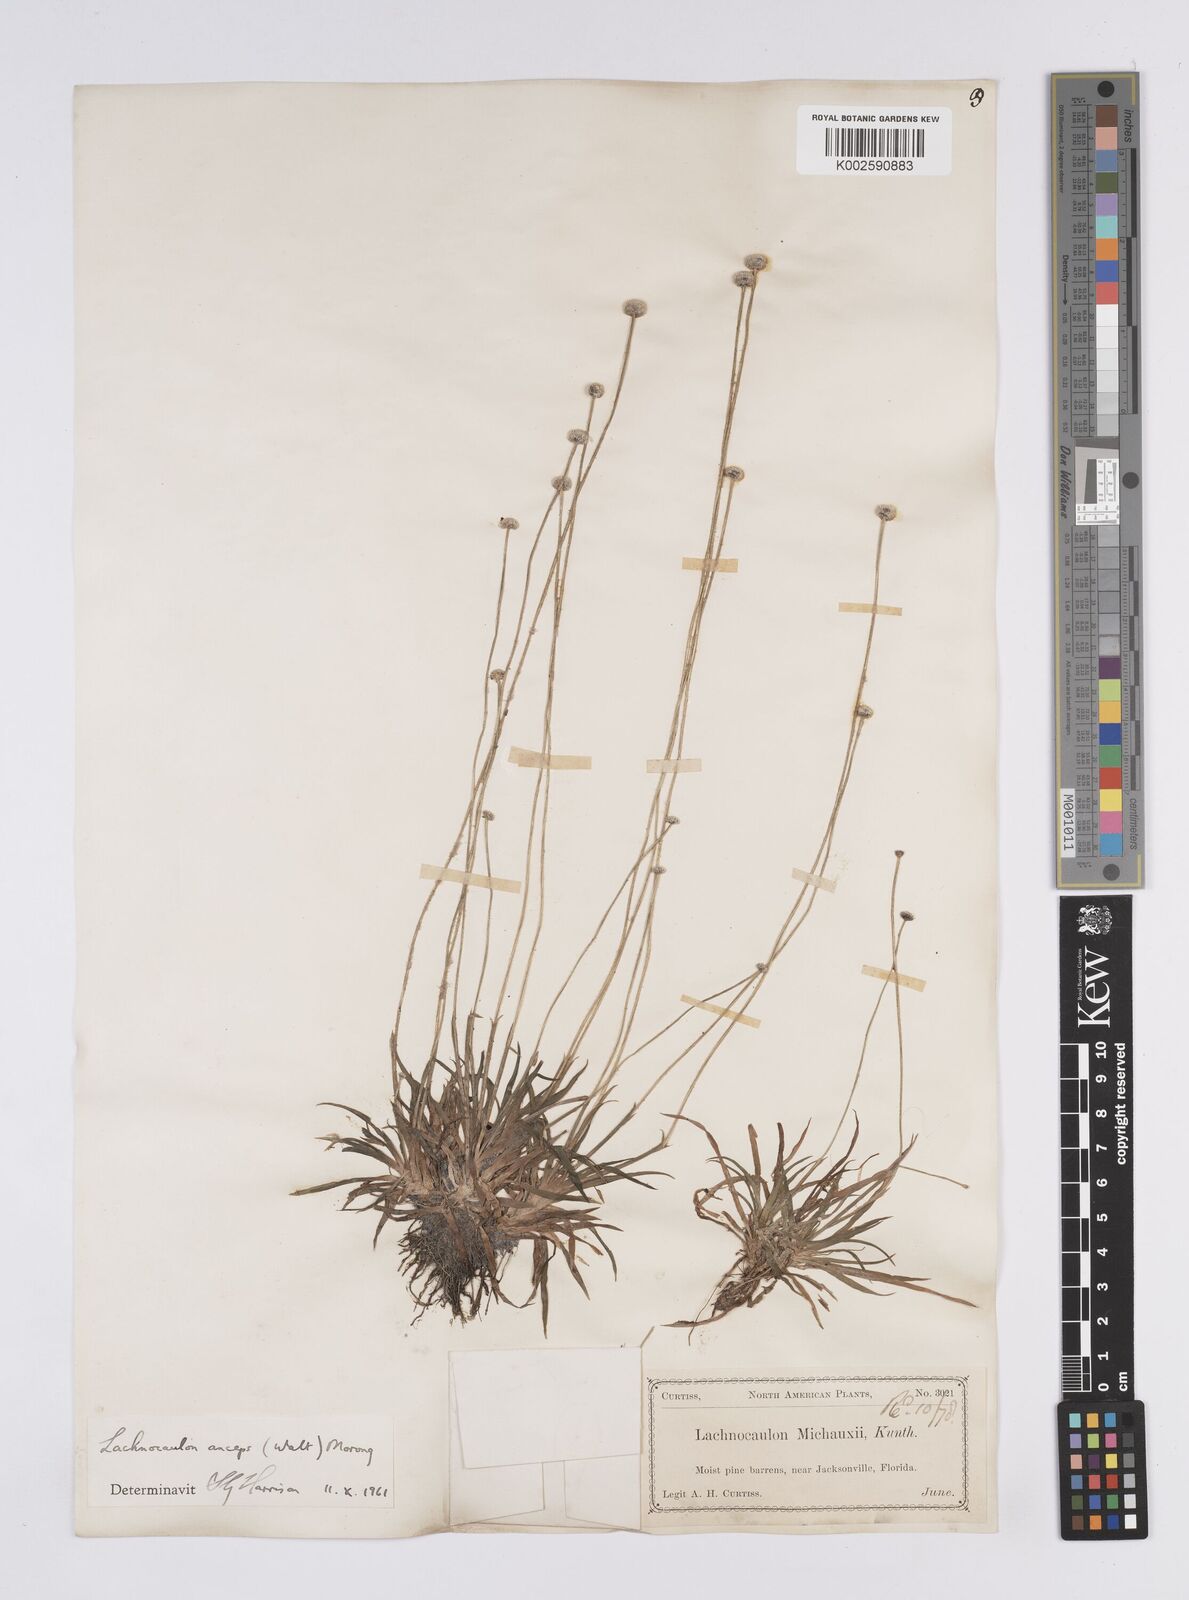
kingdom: Plantae
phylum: Tracheophyta
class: Liliopsida
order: Poales
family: Eriocaulaceae
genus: Paepalanthus
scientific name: Paepalanthus anceps
